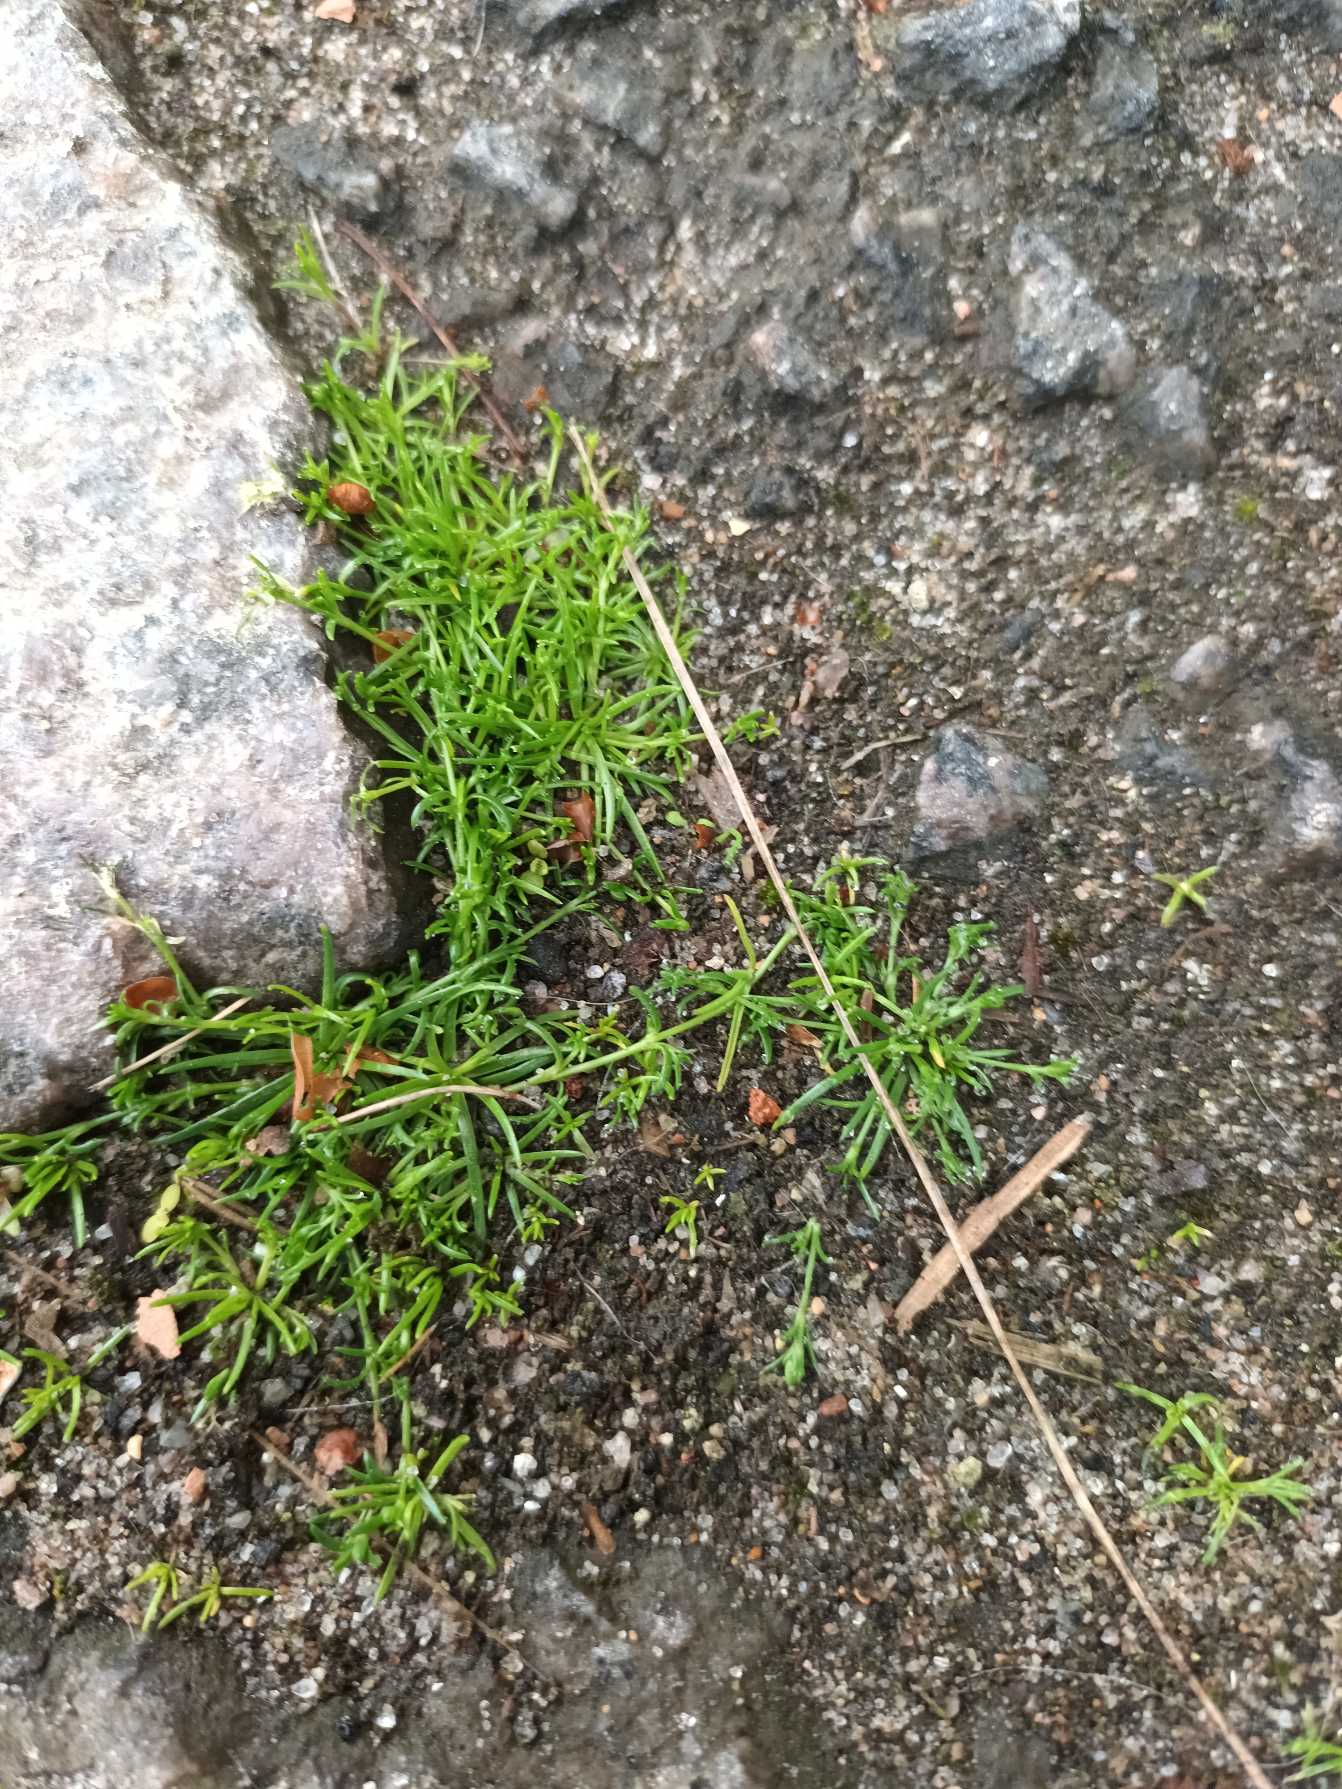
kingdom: Plantae
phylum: Tracheophyta
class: Magnoliopsida
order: Caryophyllales
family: Caryophyllaceae
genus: Sagina
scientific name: Sagina procumbens
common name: Almindelig firling
